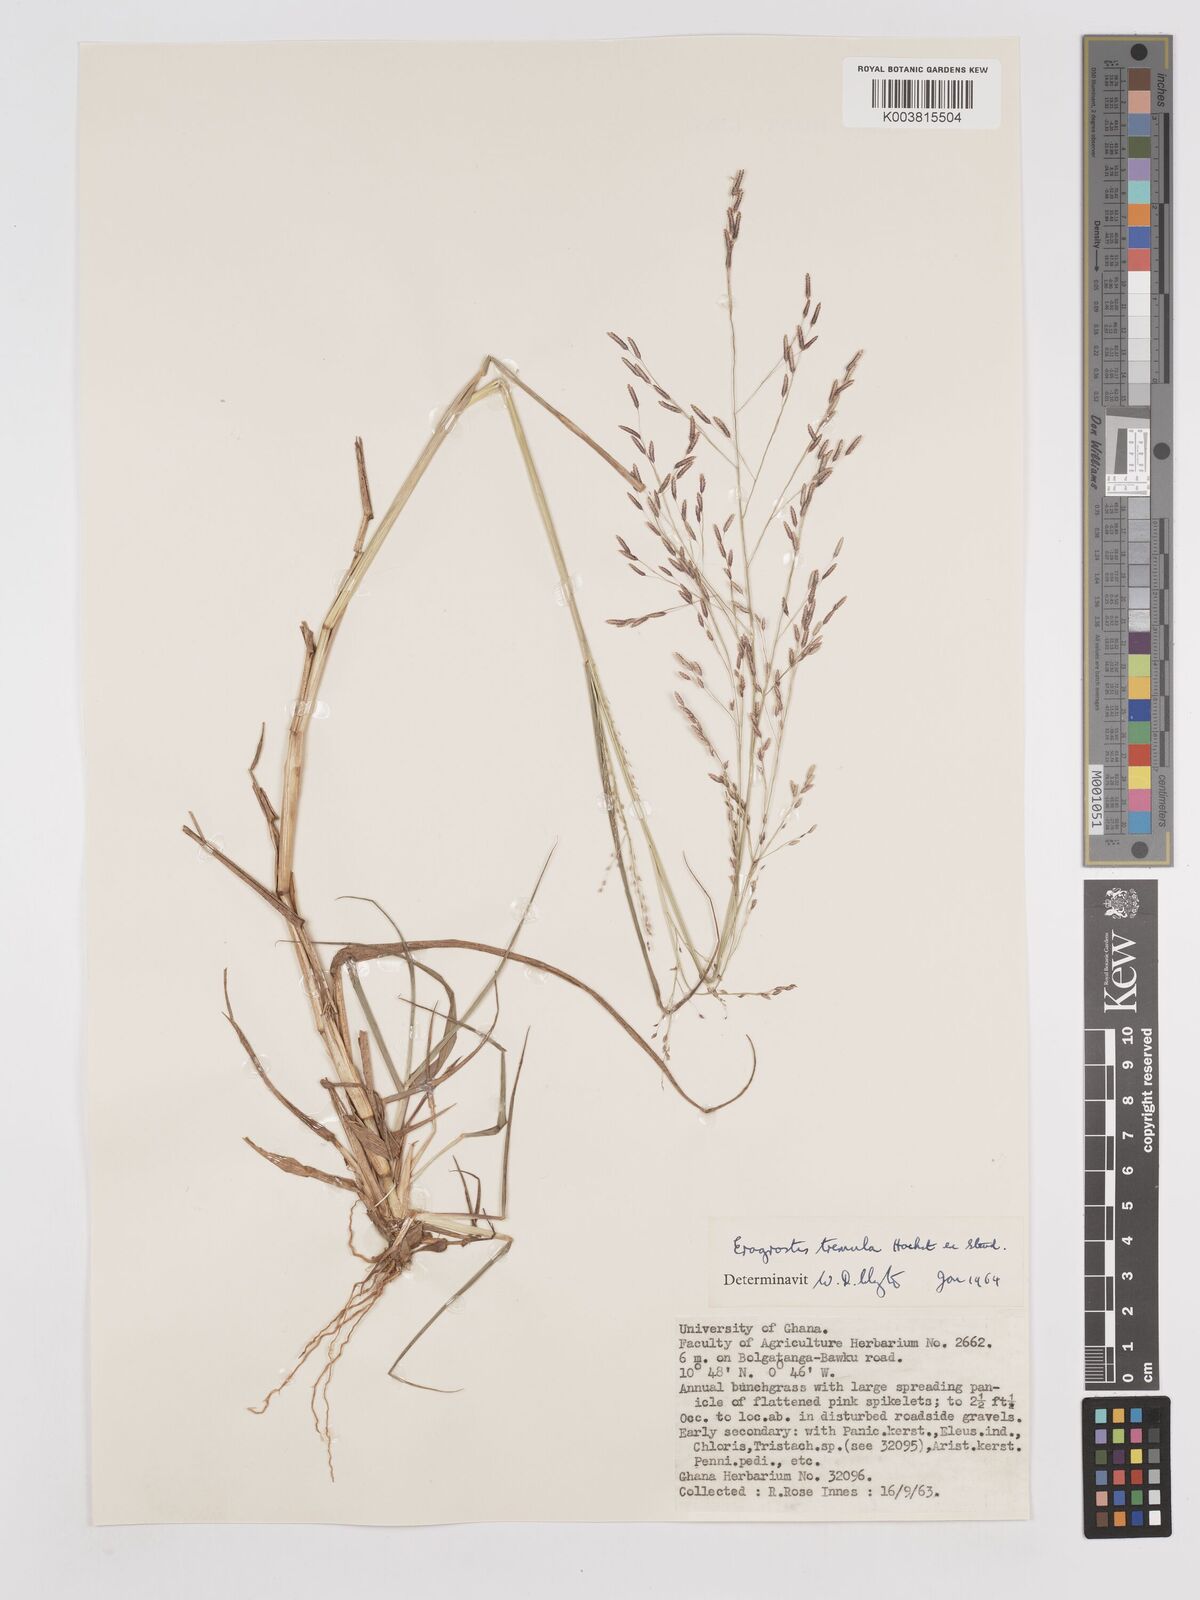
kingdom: Plantae
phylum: Tracheophyta
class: Liliopsida
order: Poales
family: Poaceae
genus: Eragrostis
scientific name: Eragrostis tremula
